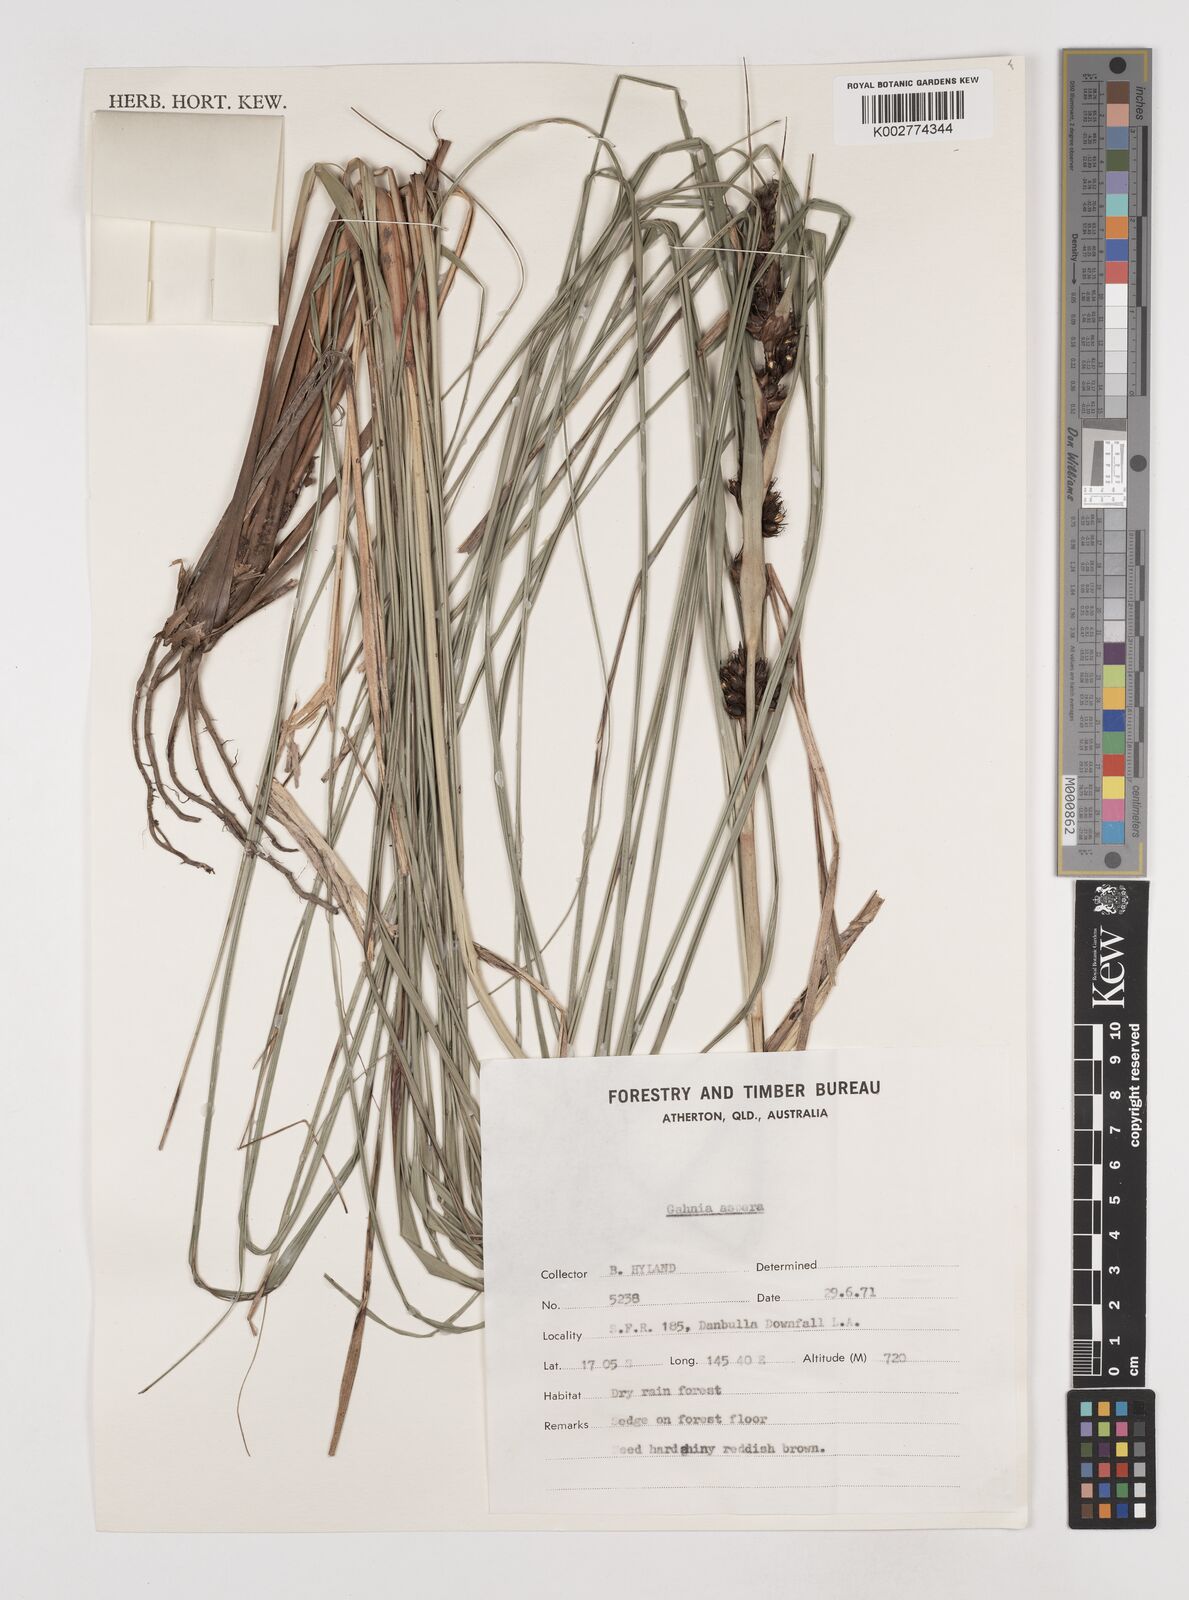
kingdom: Plantae
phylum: Tracheophyta
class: Liliopsida
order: Poales
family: Cyperaceae
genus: Gahnia
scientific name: Gahnia aspera
